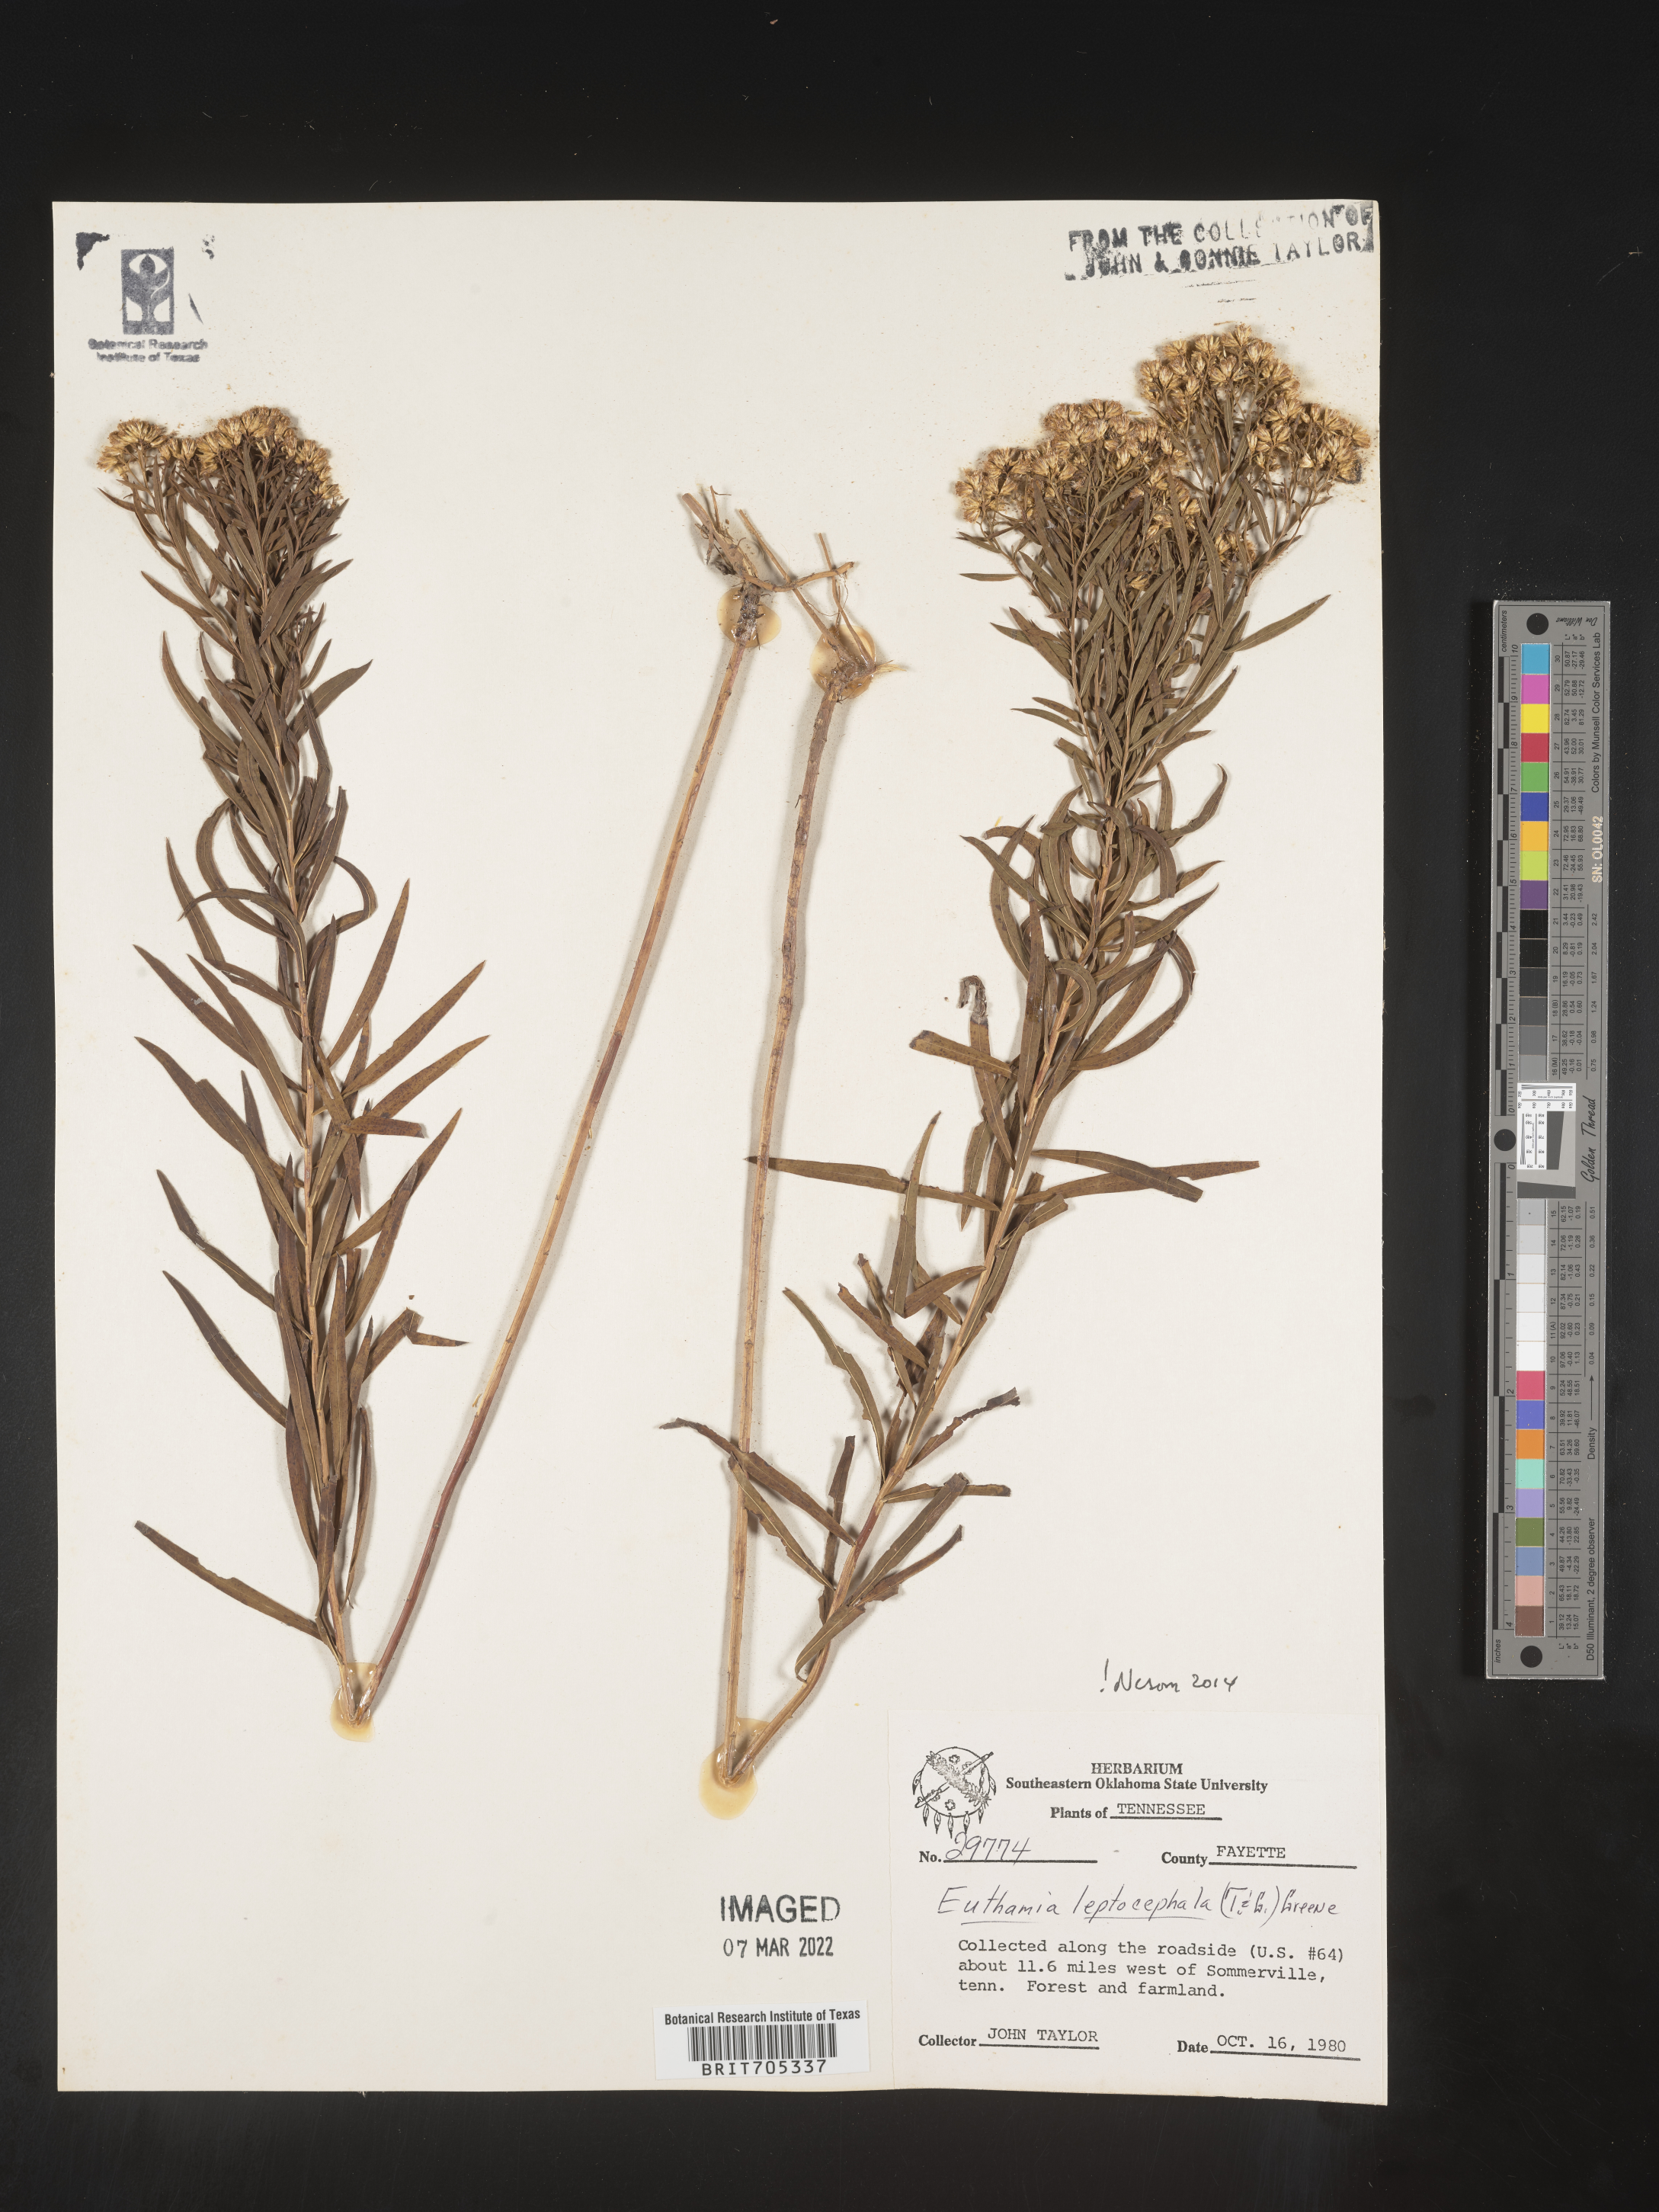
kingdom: Plantae
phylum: Tracheophyta
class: Magnoliopsida
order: Asterales
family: Asteraceae
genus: Euthamia
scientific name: Euthamia leptocephala
